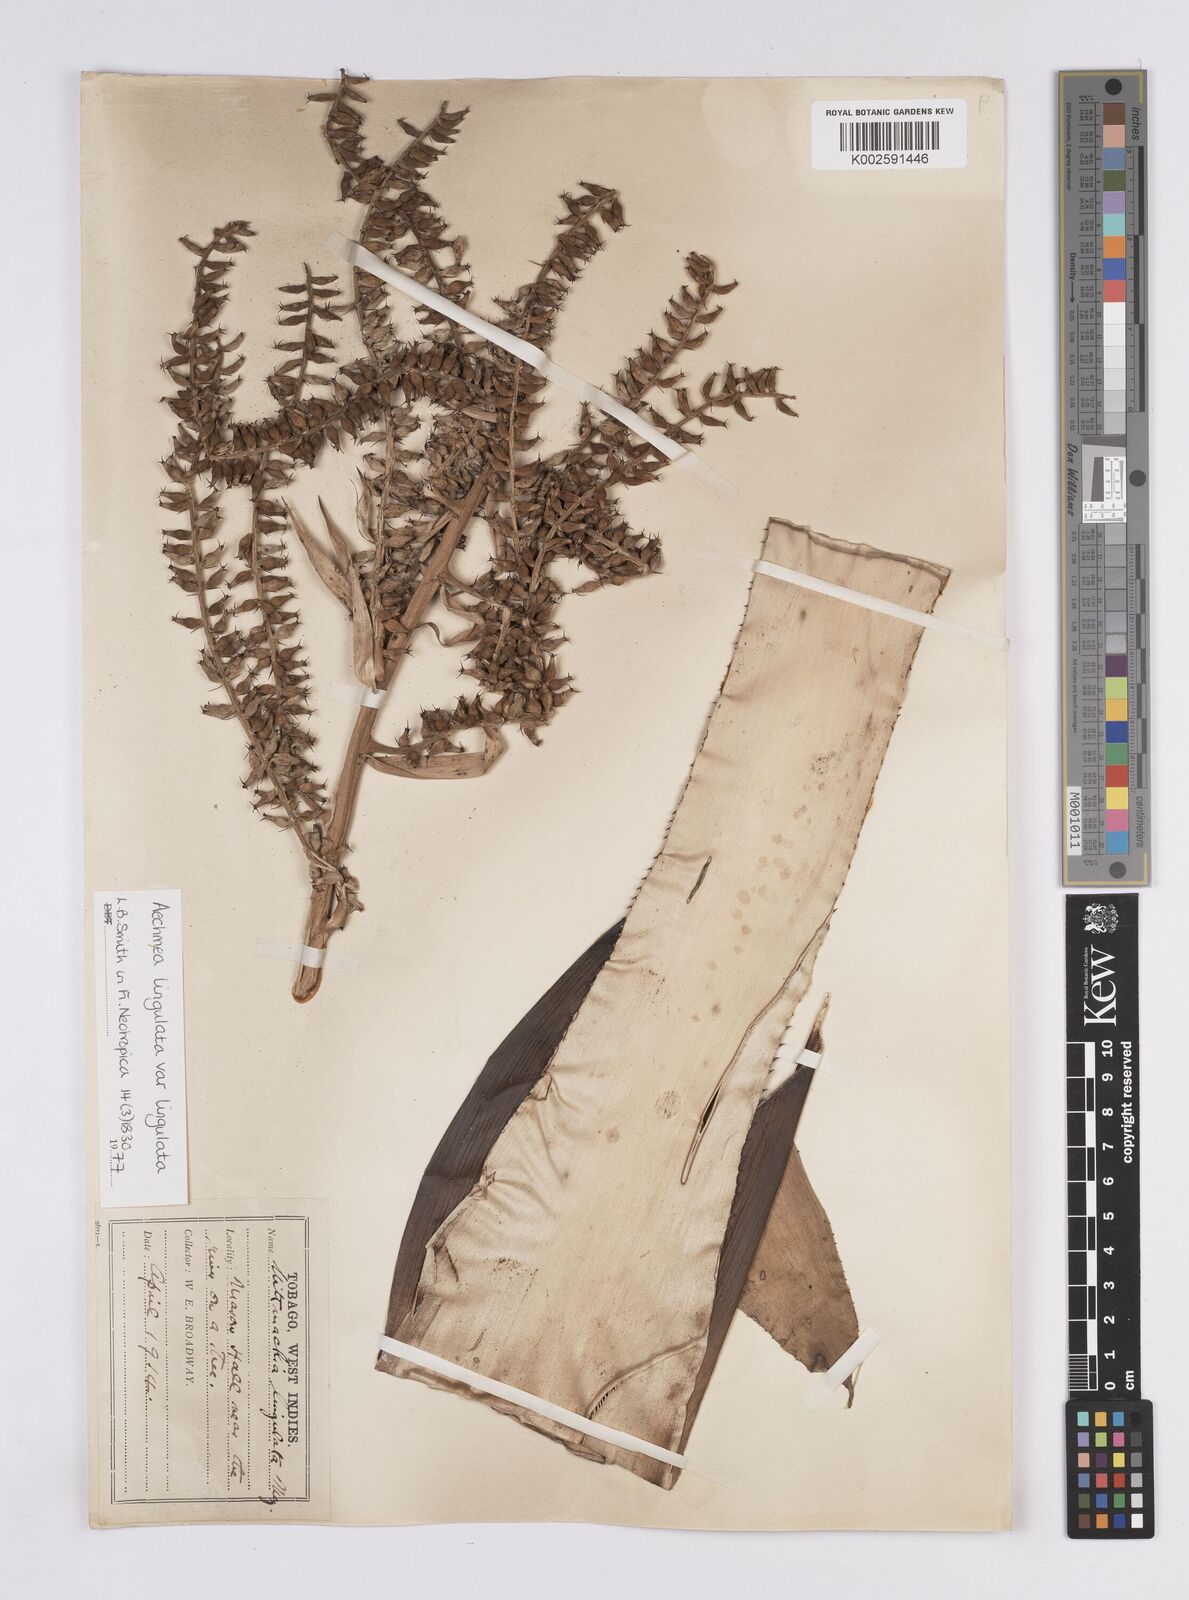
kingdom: Plantae
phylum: Tracheophyta
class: Liliopsida
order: Poales
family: Bromeliaceae
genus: Wittmackia
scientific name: Wittmackia lingulata
